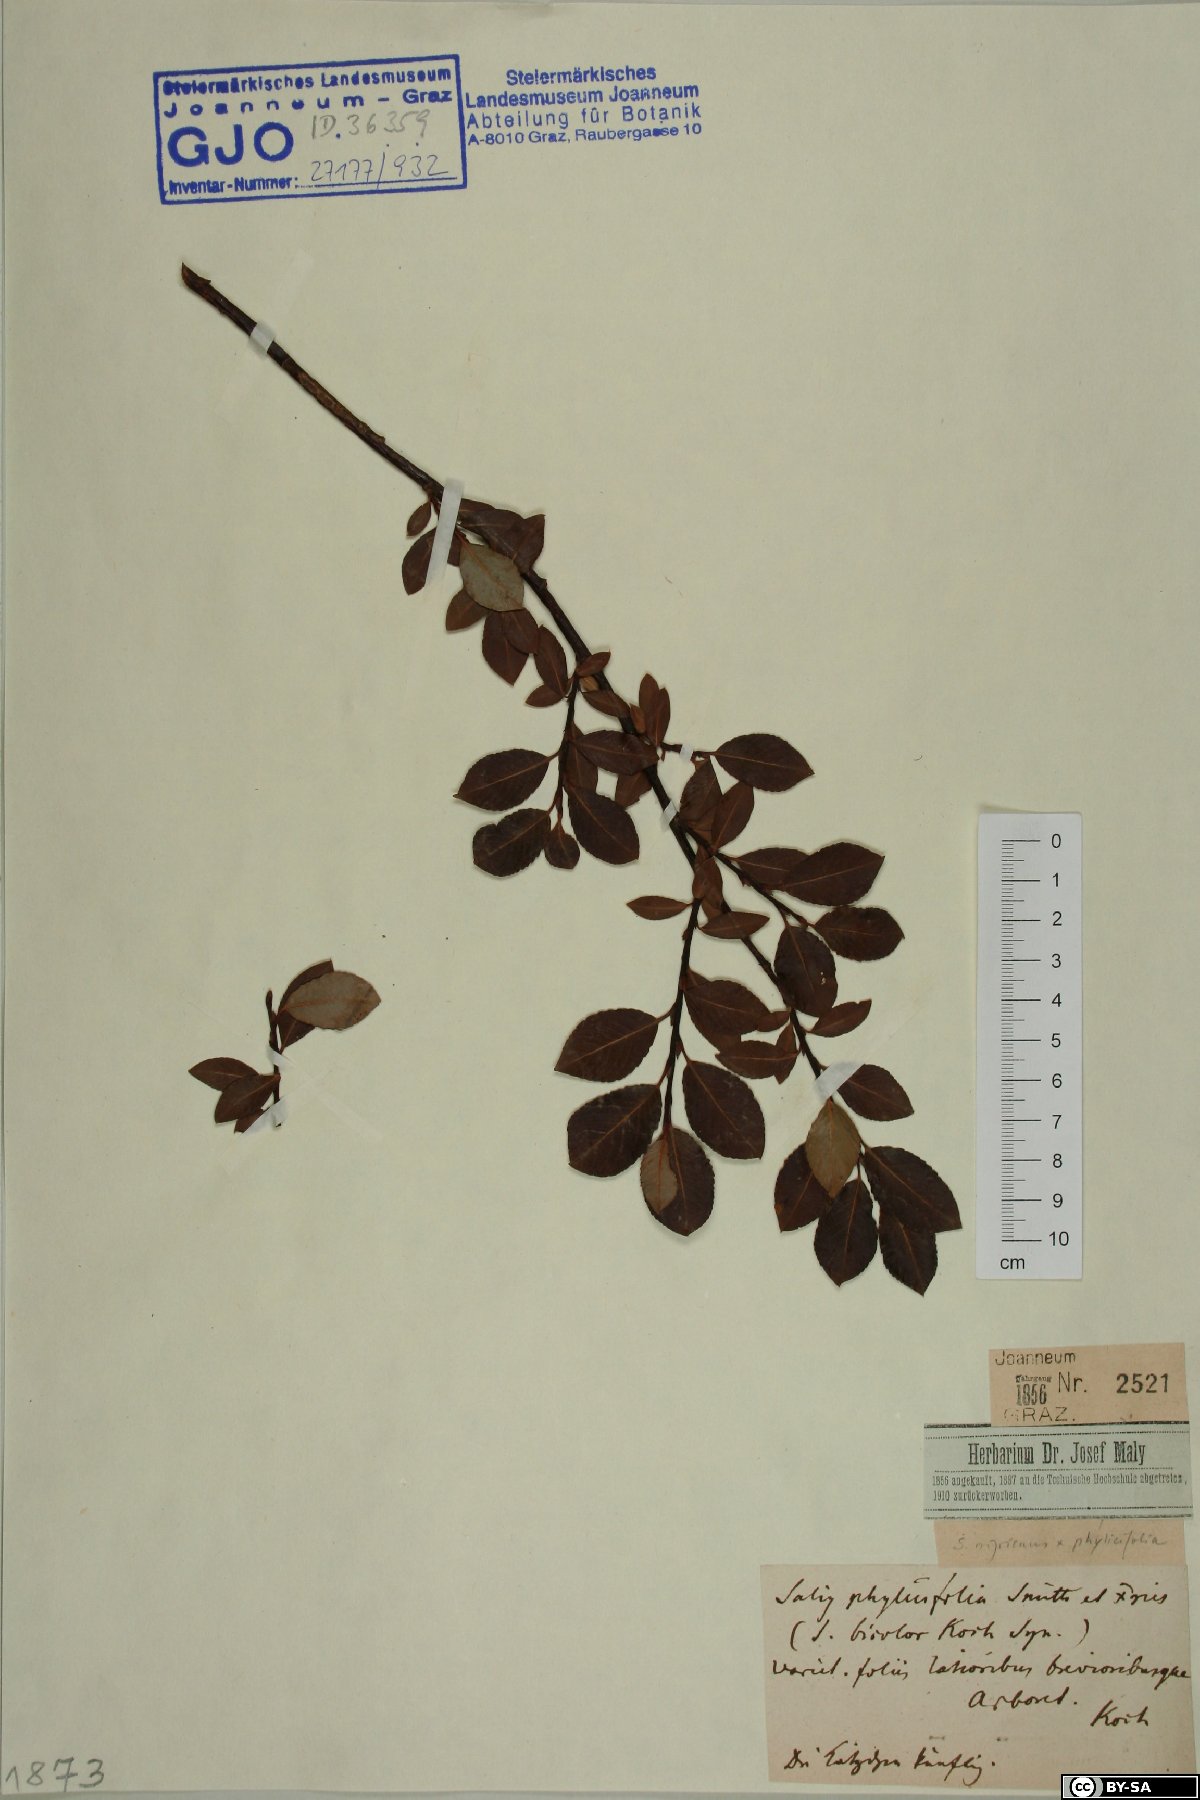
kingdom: Plantae
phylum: Tracheophyta
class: Magnoliopsida
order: Malpighiales
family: Salicaceae
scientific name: Salicaceae
